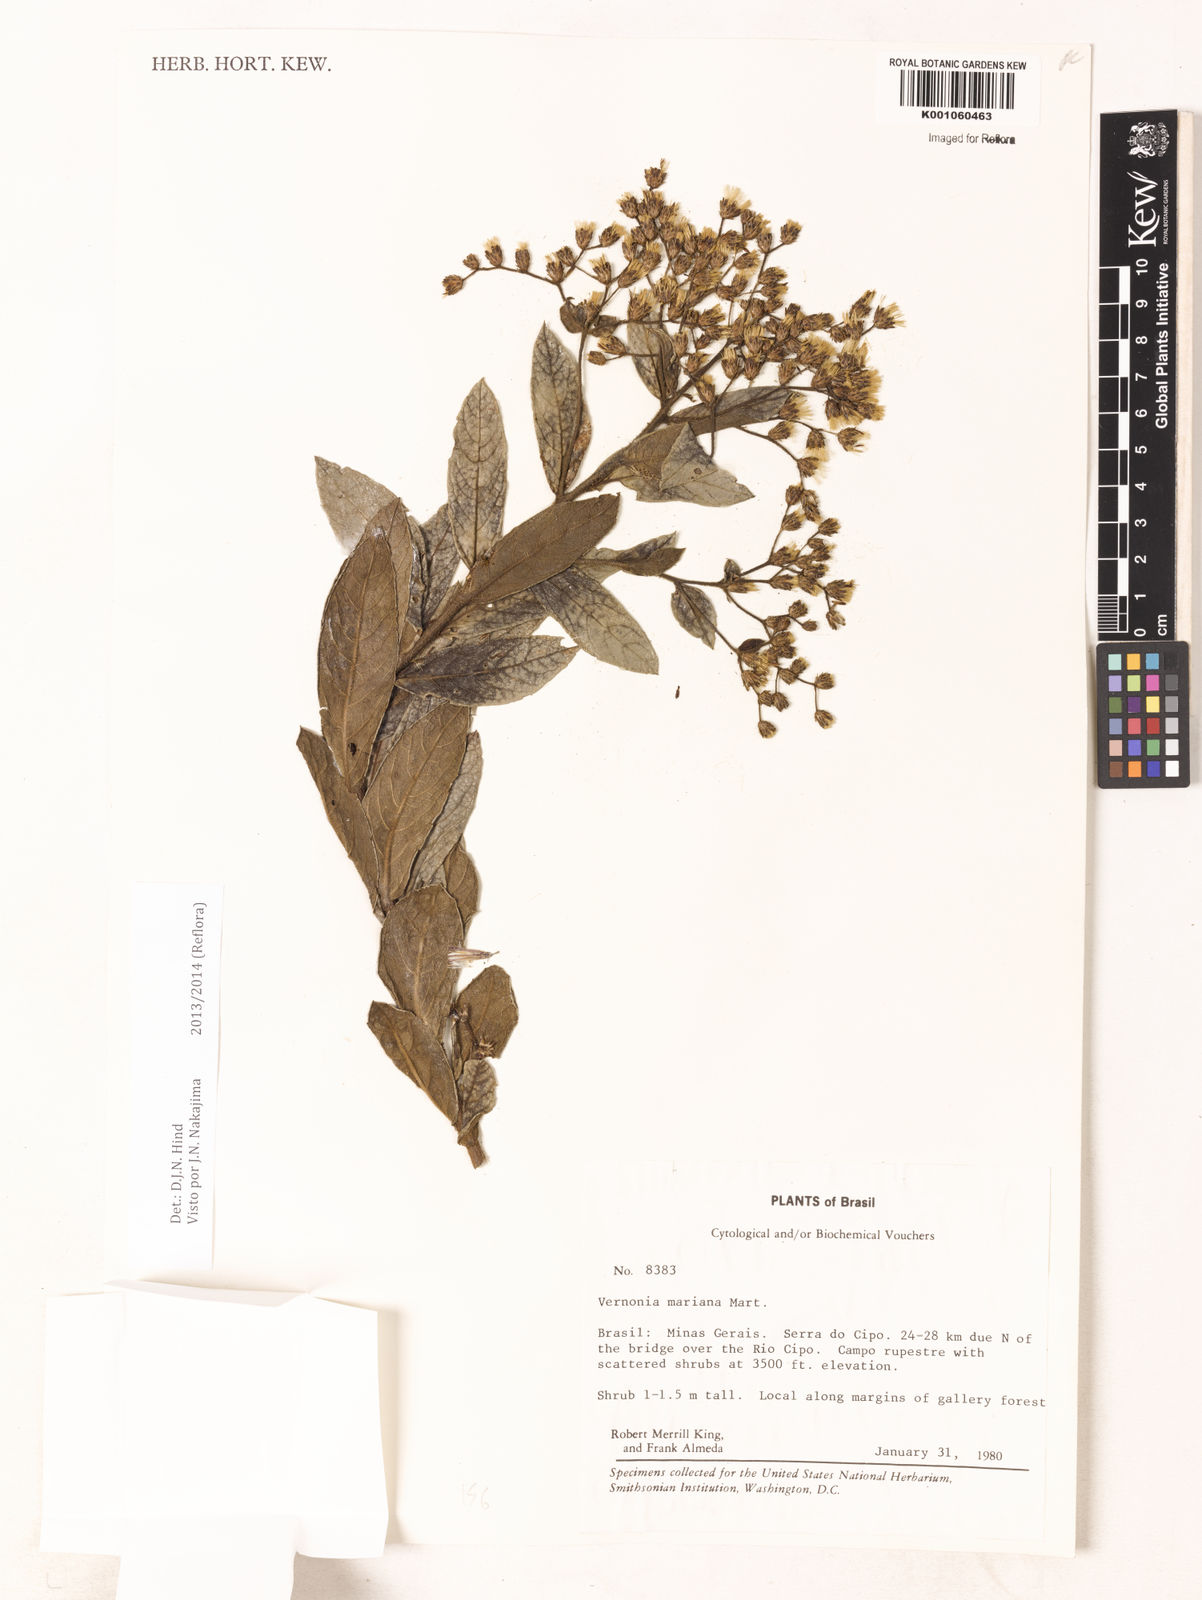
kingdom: Plantae
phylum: Tracheophyta
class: Magnoliopsida
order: Asterales
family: Asteraceae
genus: Vernonanthura
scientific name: Vernonanthura cymosa
